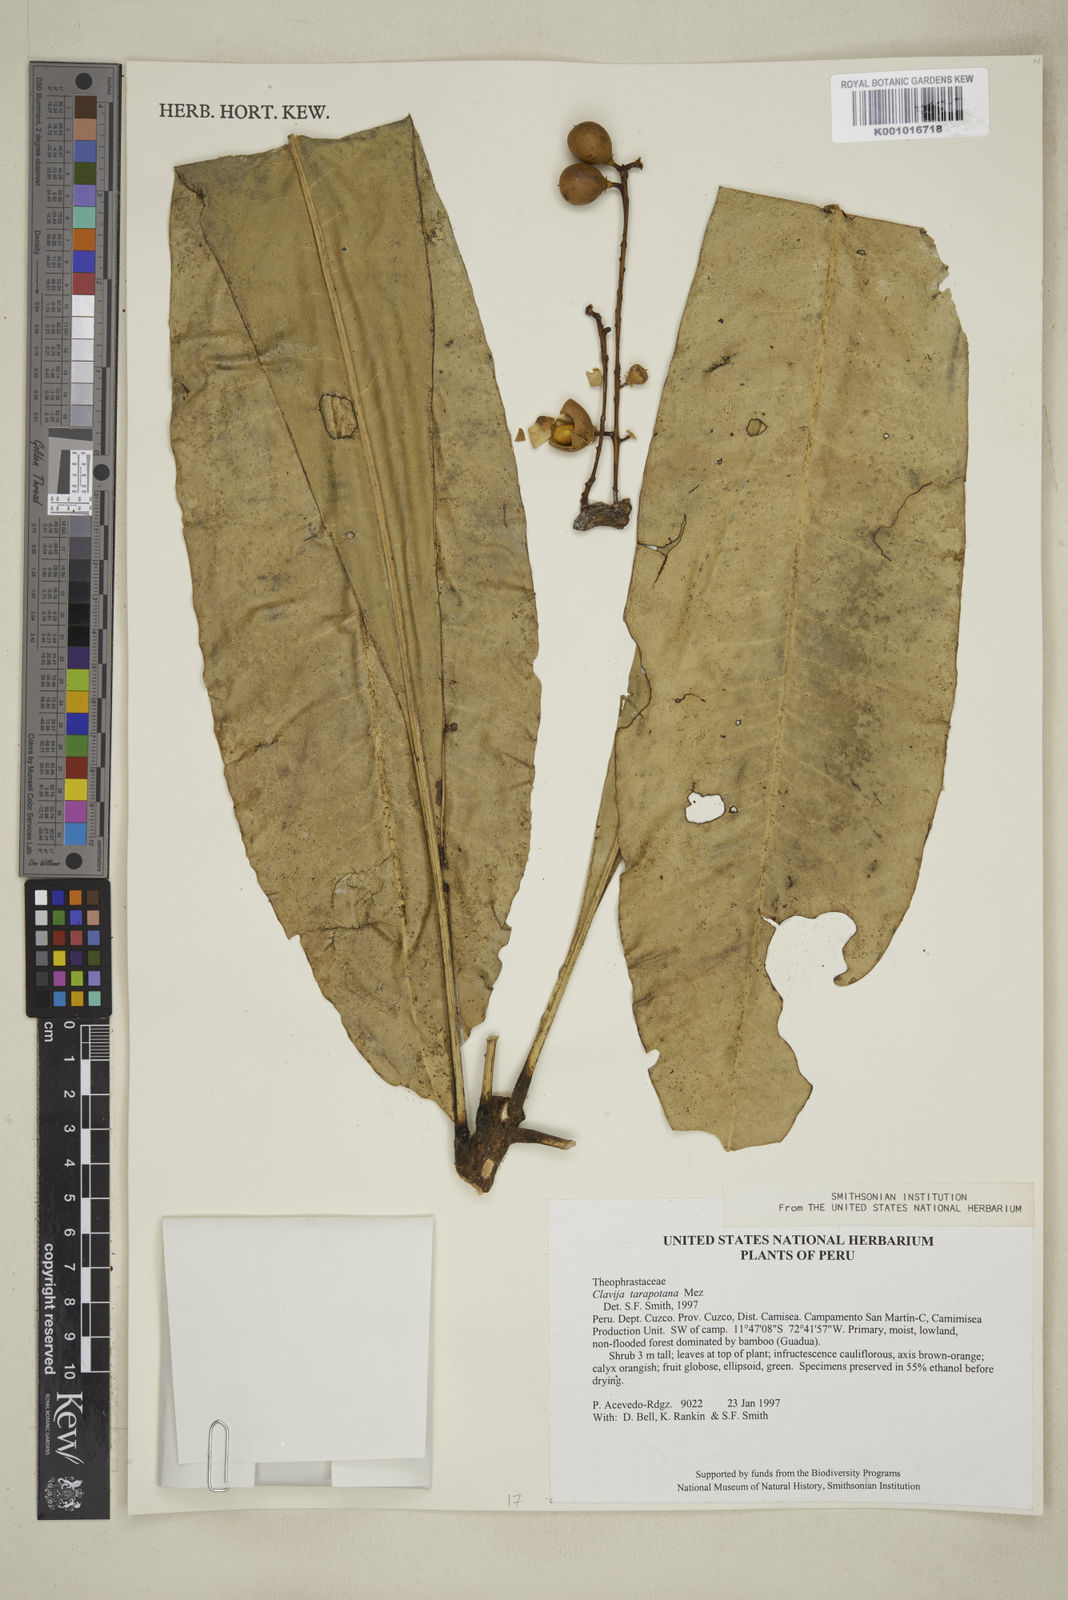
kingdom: Plantae
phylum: Tracheophyta
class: Magnoliopsida
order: Ericales
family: Primulaceae
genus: Clavija
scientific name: Clavija macrocarpa
